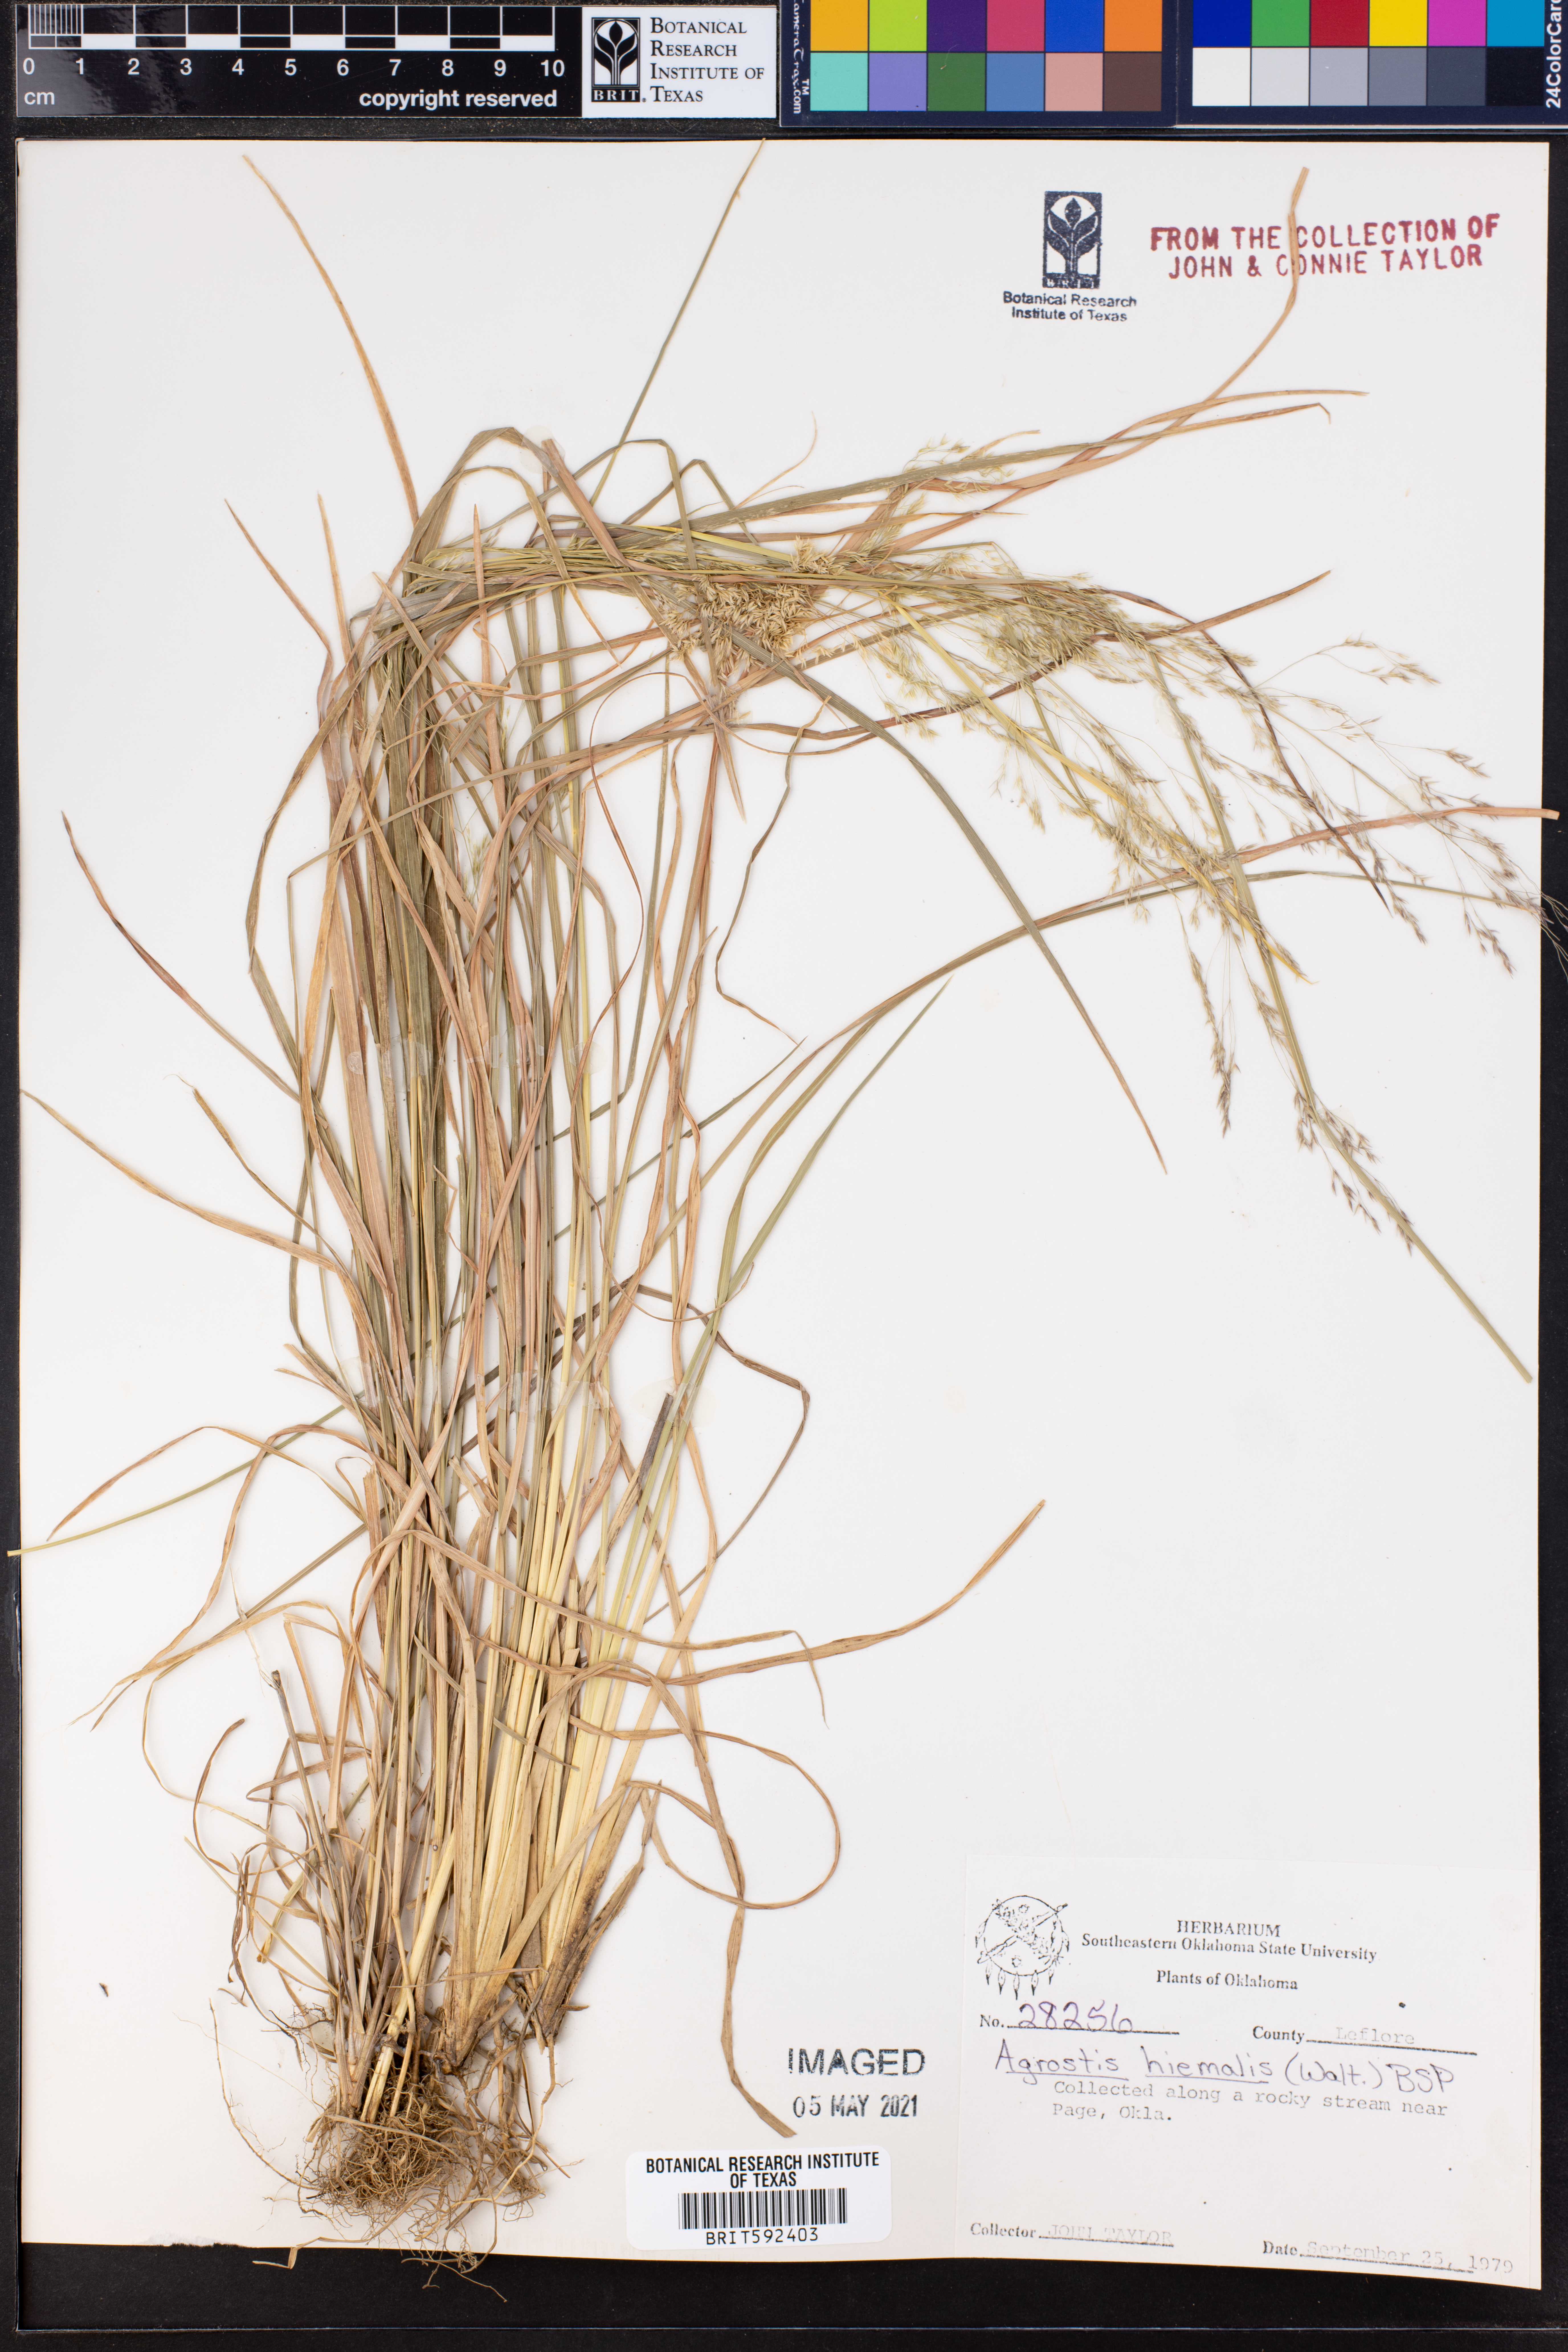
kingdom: Plantae
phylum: Tracheophyta
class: Liliopsida
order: Poales
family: Poaceae
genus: Agrostis
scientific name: Agrostis hyemalis
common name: Small bent
